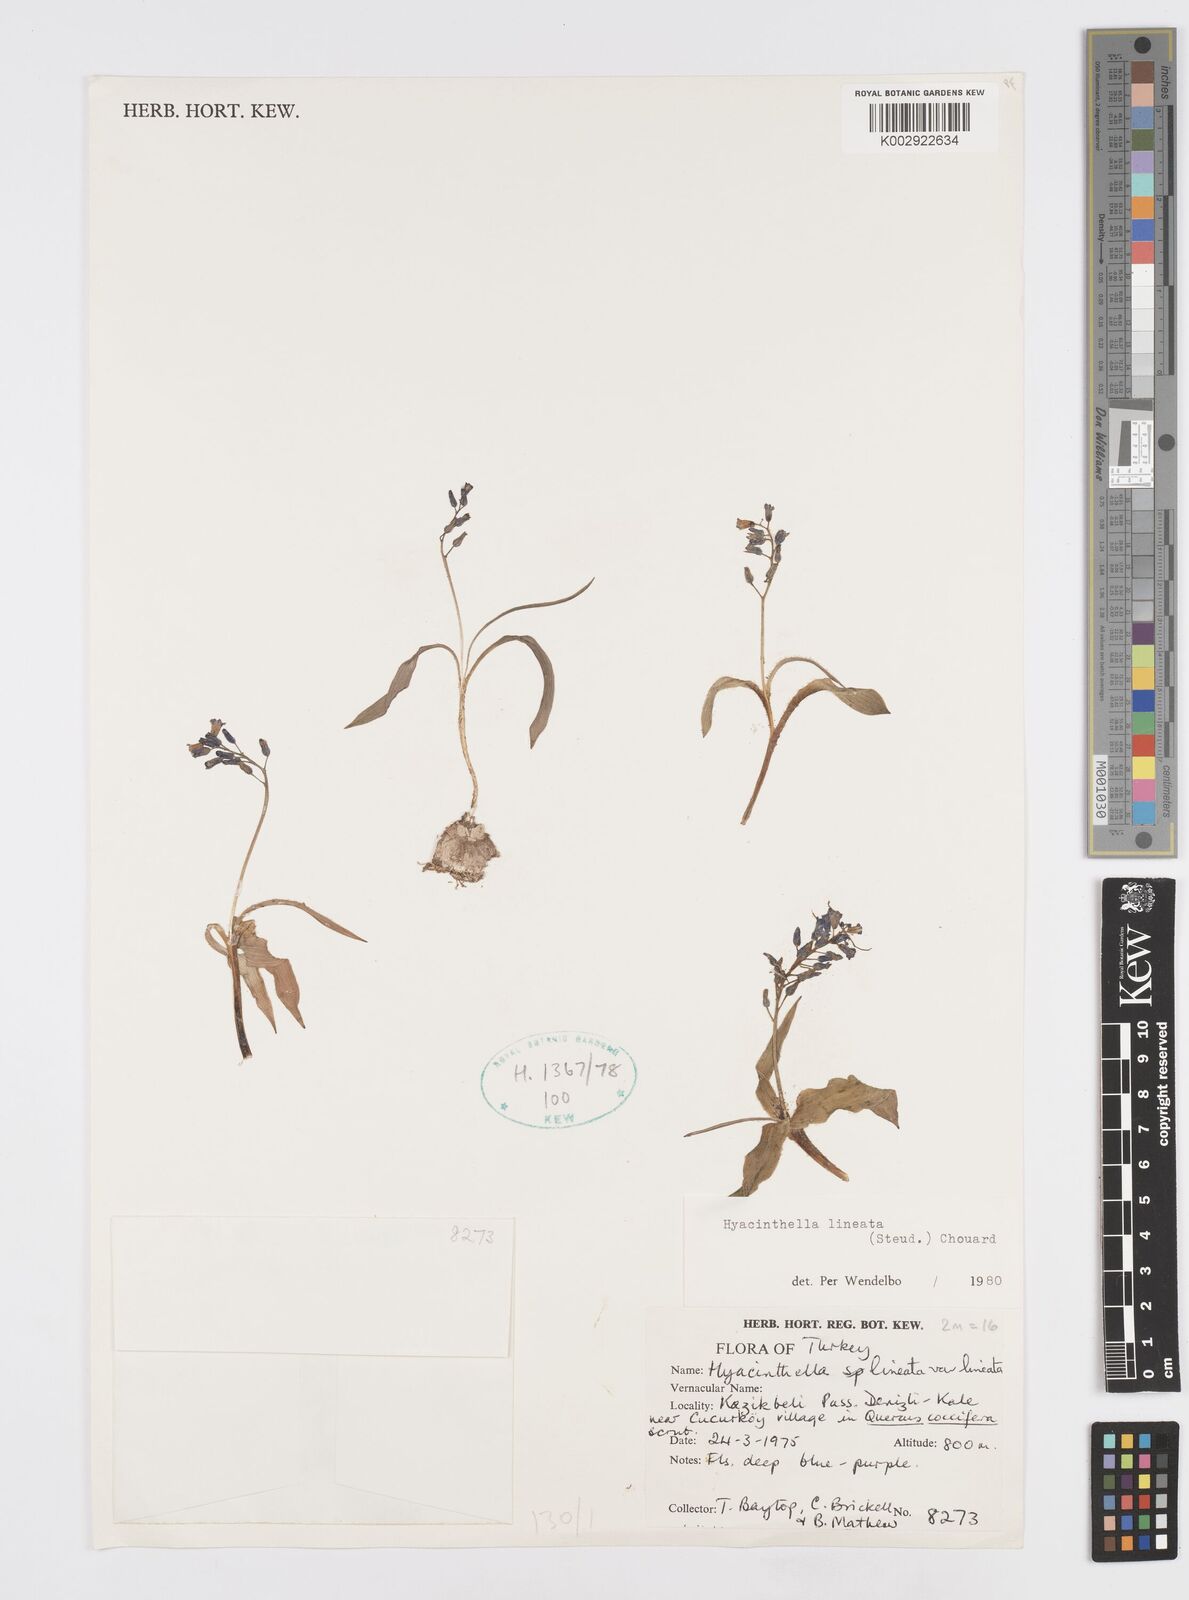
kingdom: Plantae
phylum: Tracheophyta
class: Liliopsida
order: Asparagales
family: Asparagaceae
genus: Hyacinthella
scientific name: Hyacinthella lineata
